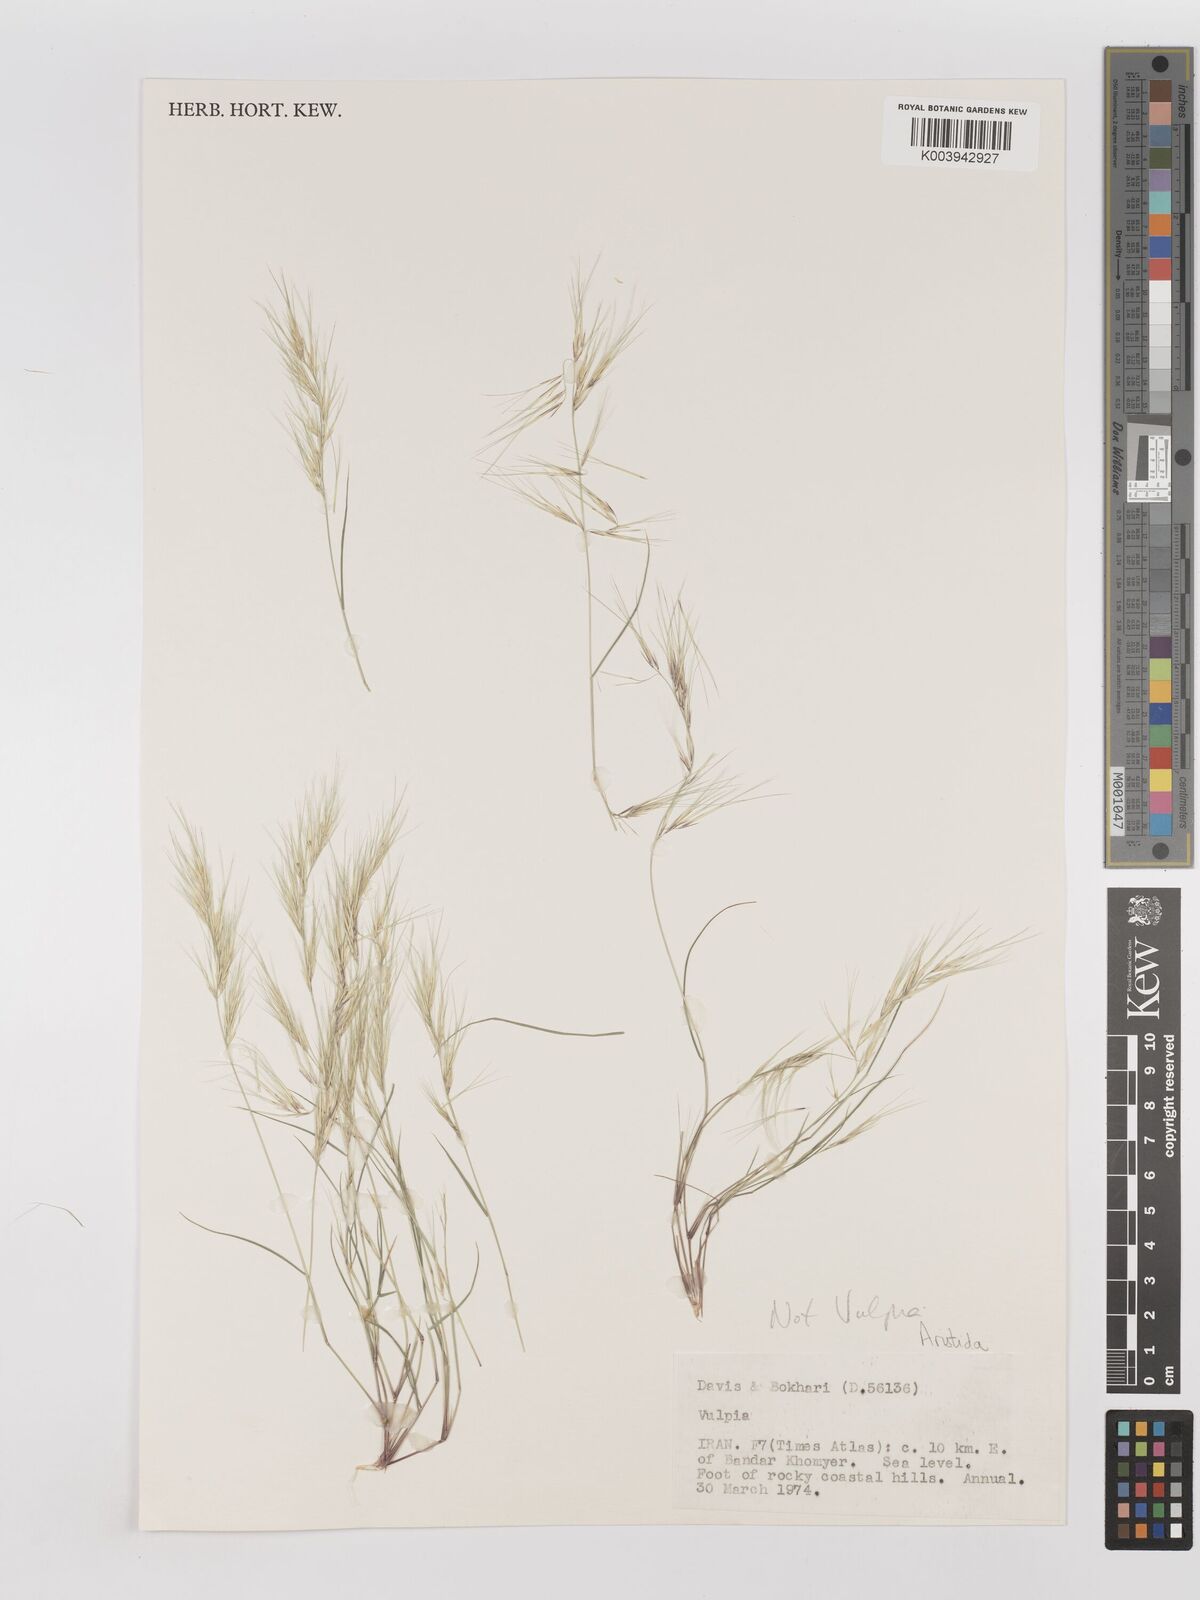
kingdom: Plantae
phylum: Tracheophyta
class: Liliopsida
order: Poales
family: Poaceae
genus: Aristida
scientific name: Aristida adscensionis
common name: Sixweeks threeawn
